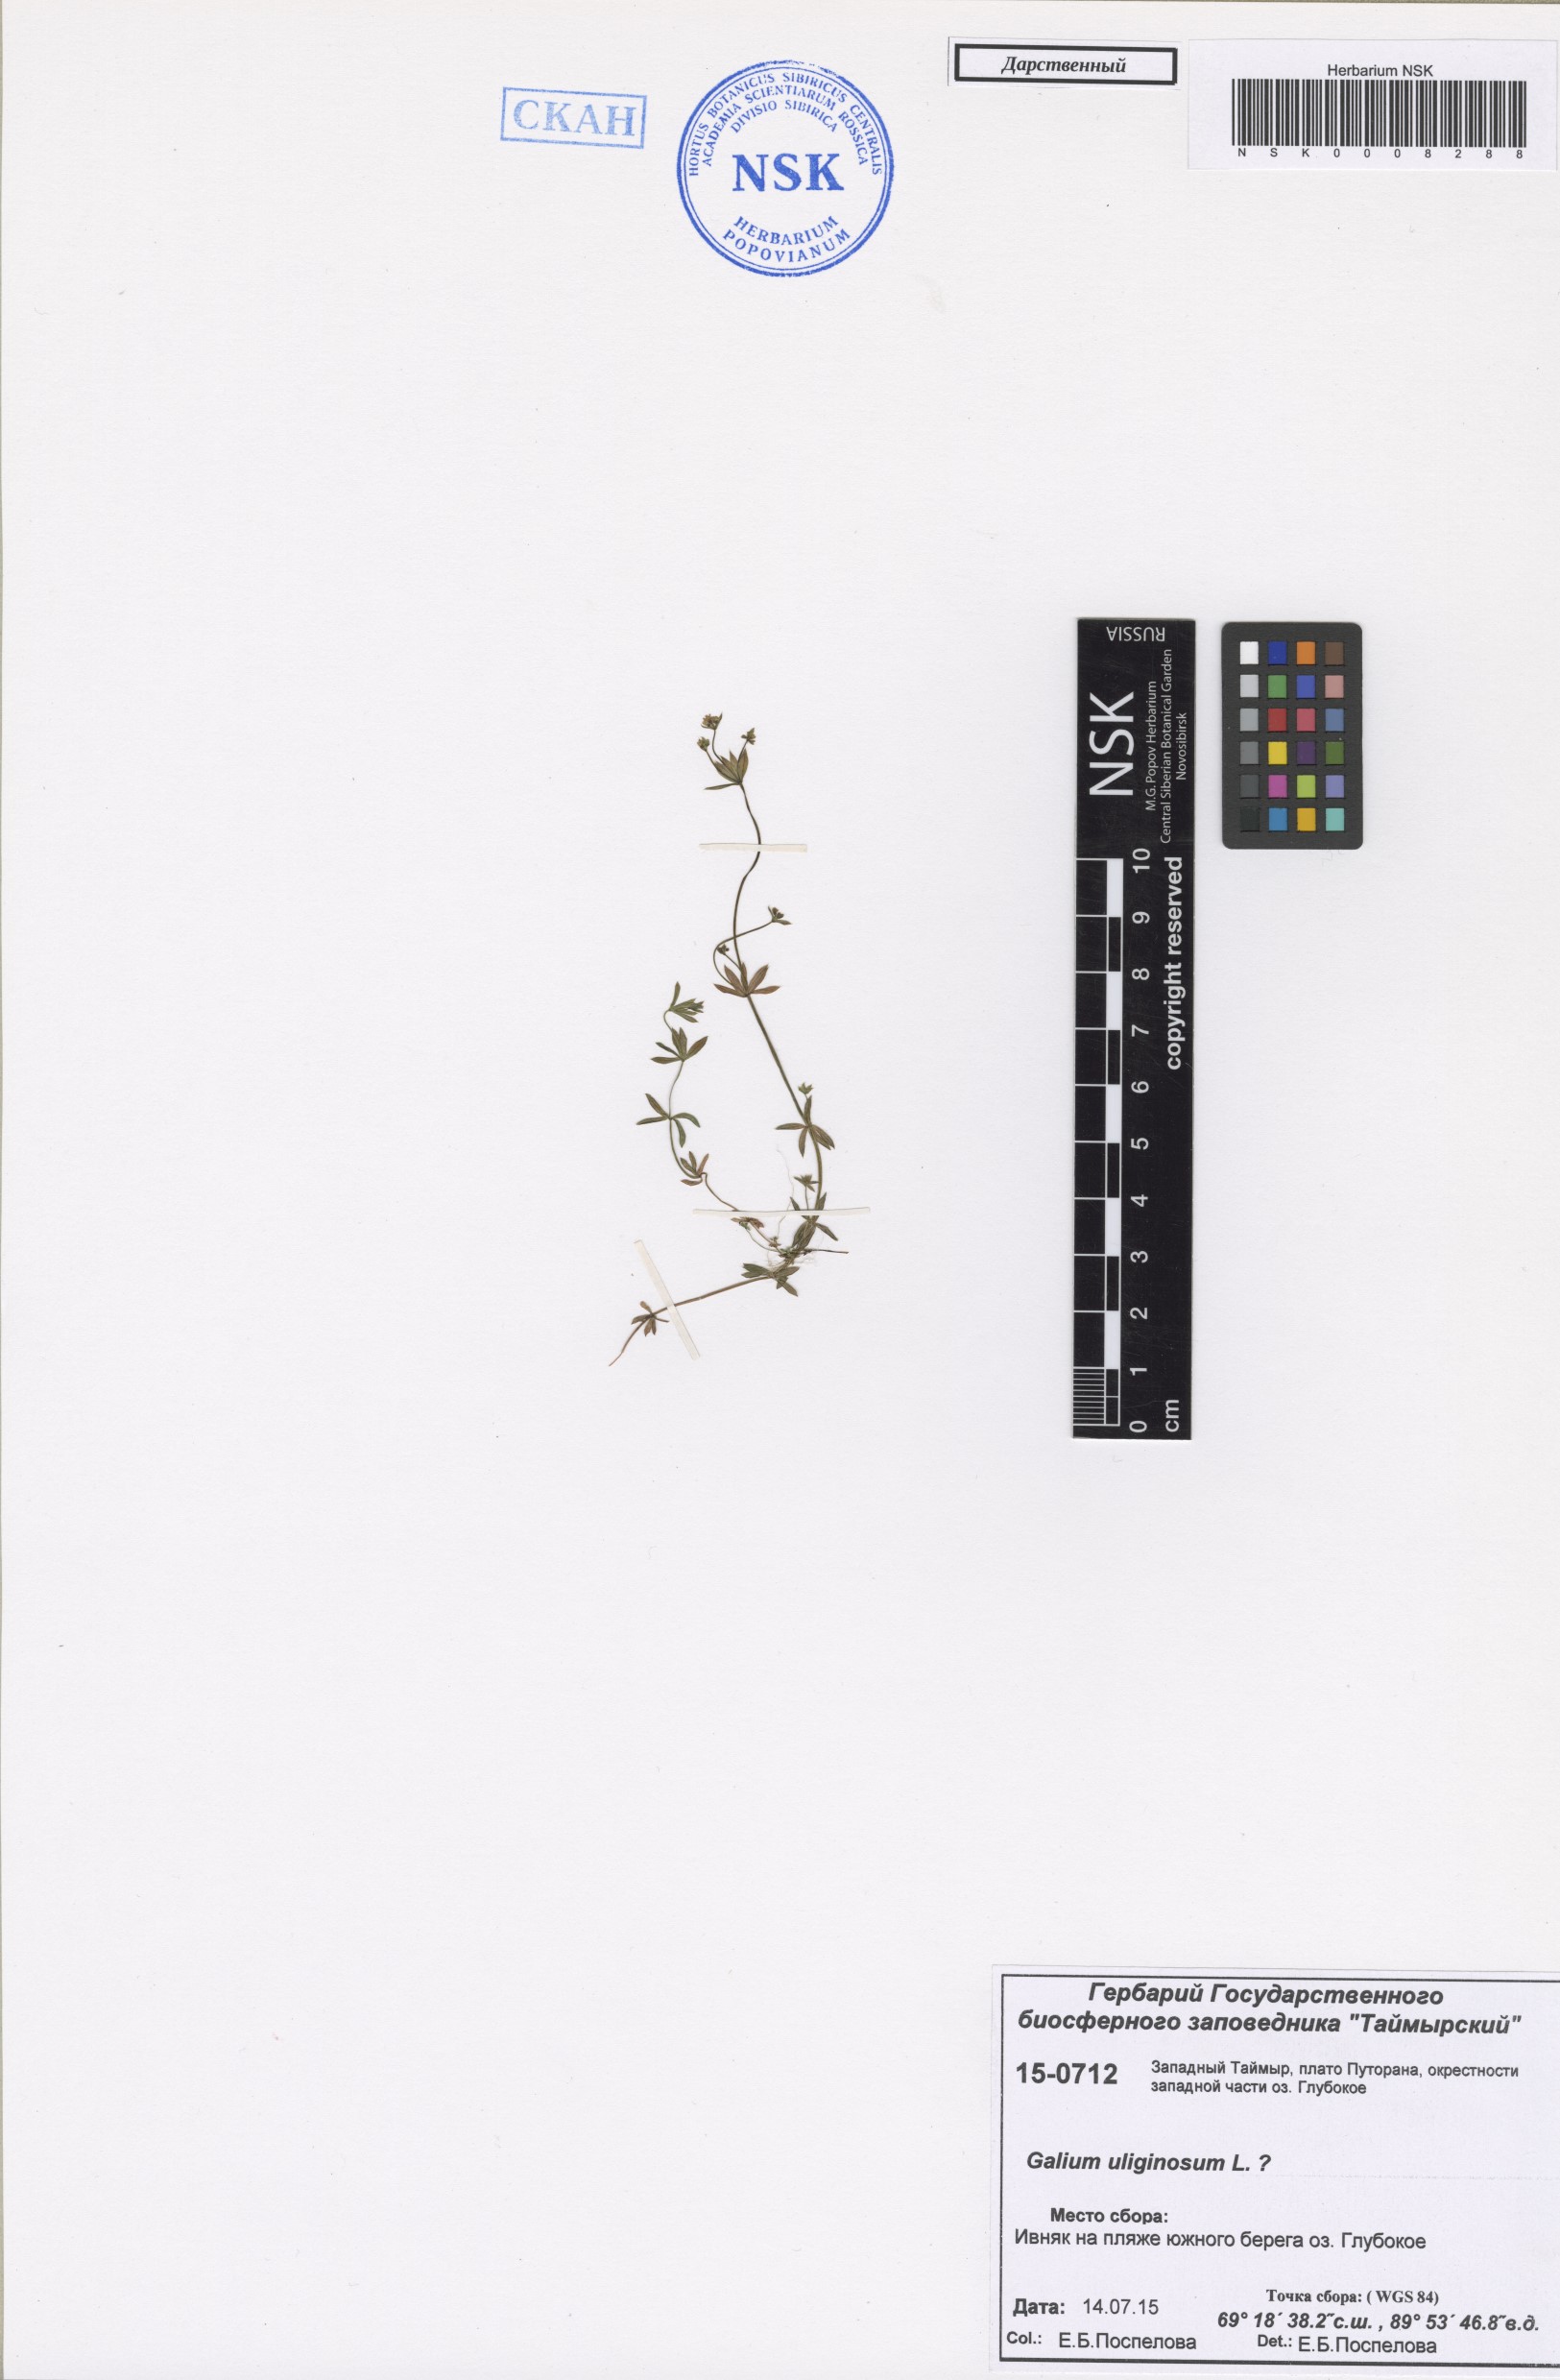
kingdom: Plantae
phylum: Tracheophyta
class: Magnoliopsida
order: Gentianales
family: Rubiaceae
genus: Galium
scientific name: Galium uliginosum
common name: Fen bedstraw
